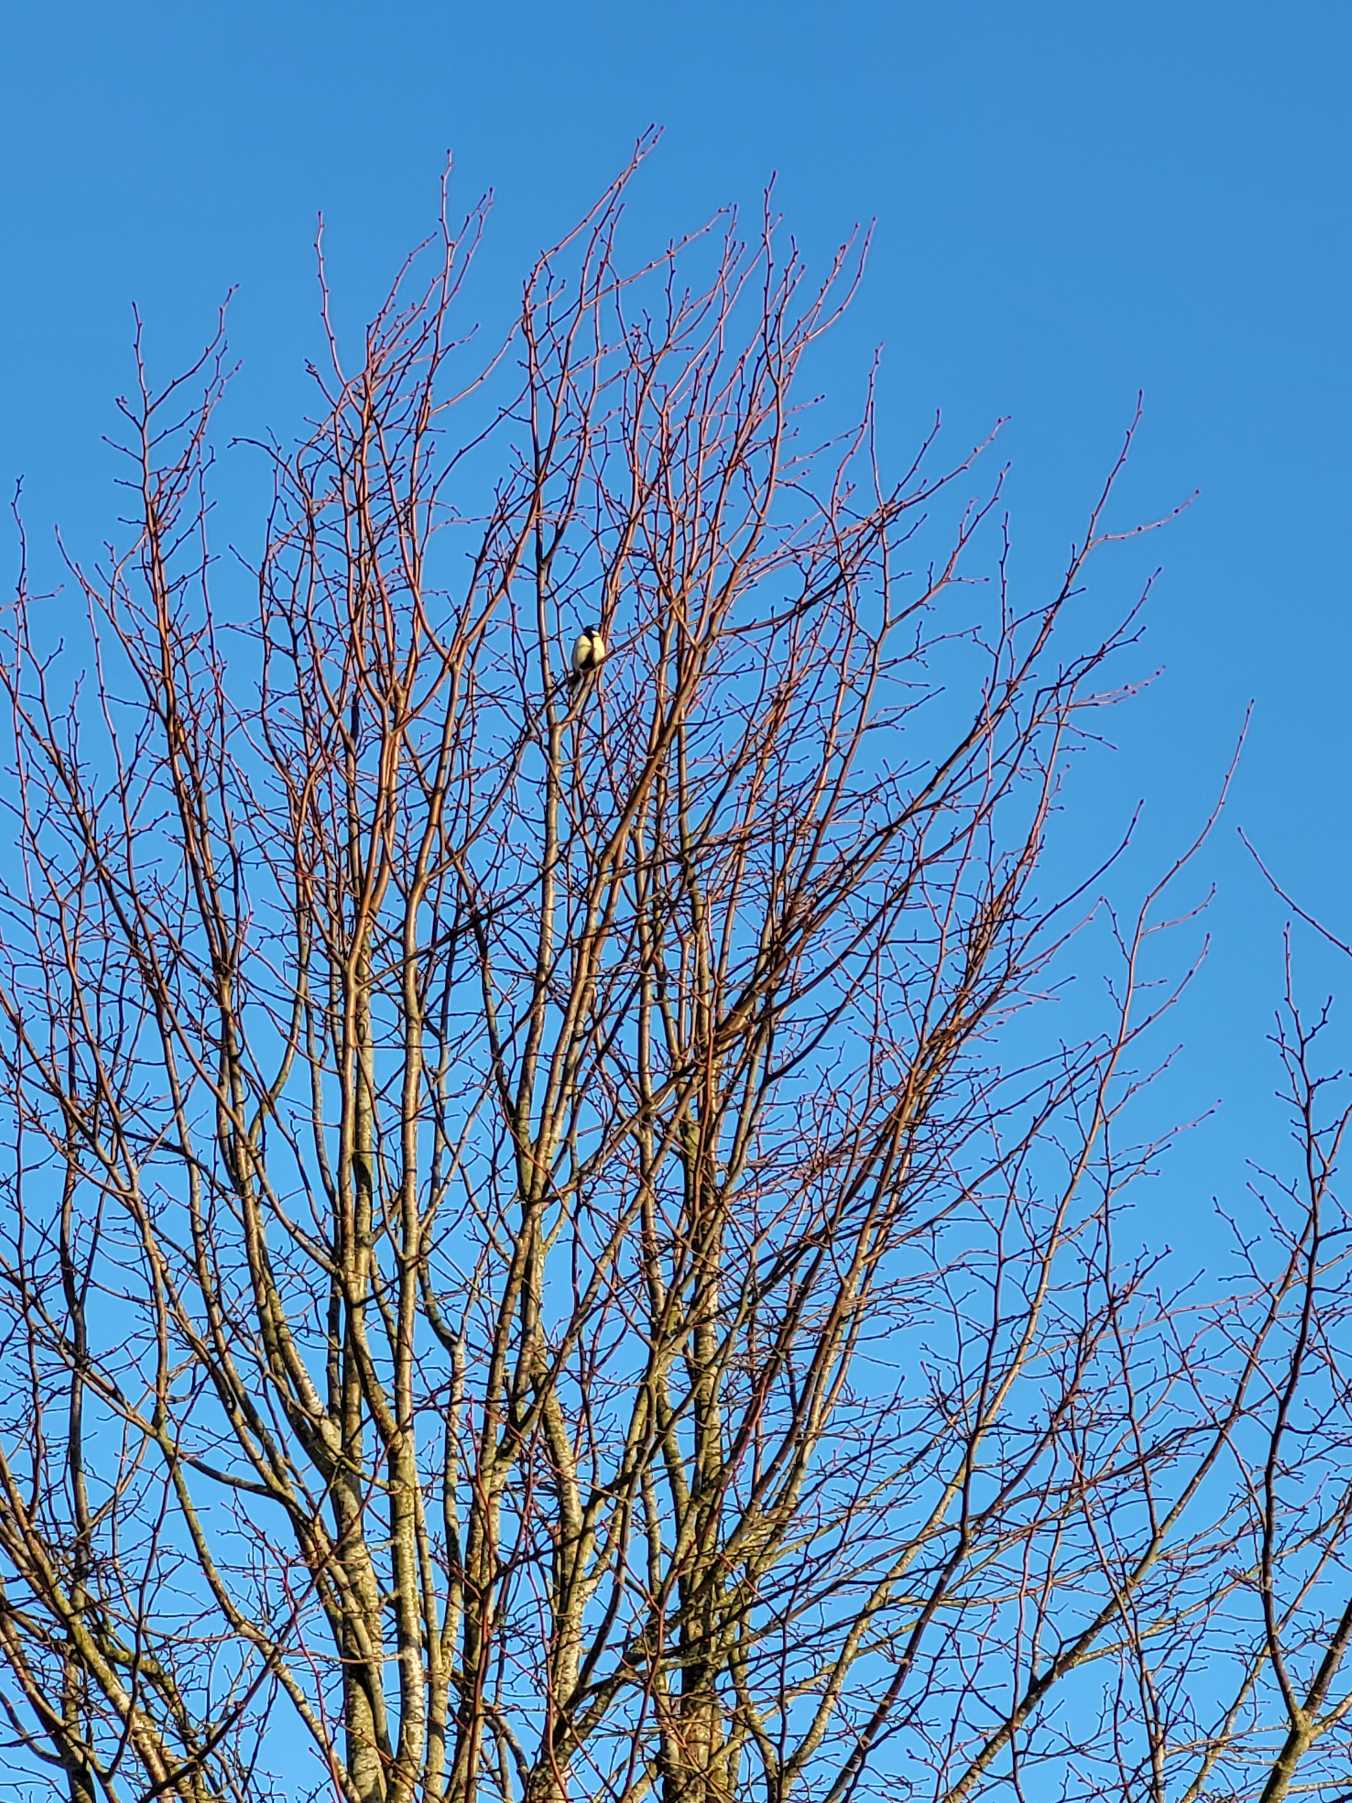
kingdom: Animalia
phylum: Chordata
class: Aves
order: Passeriformes
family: Paridae
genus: Parus
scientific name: Parus major
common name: Musvit
